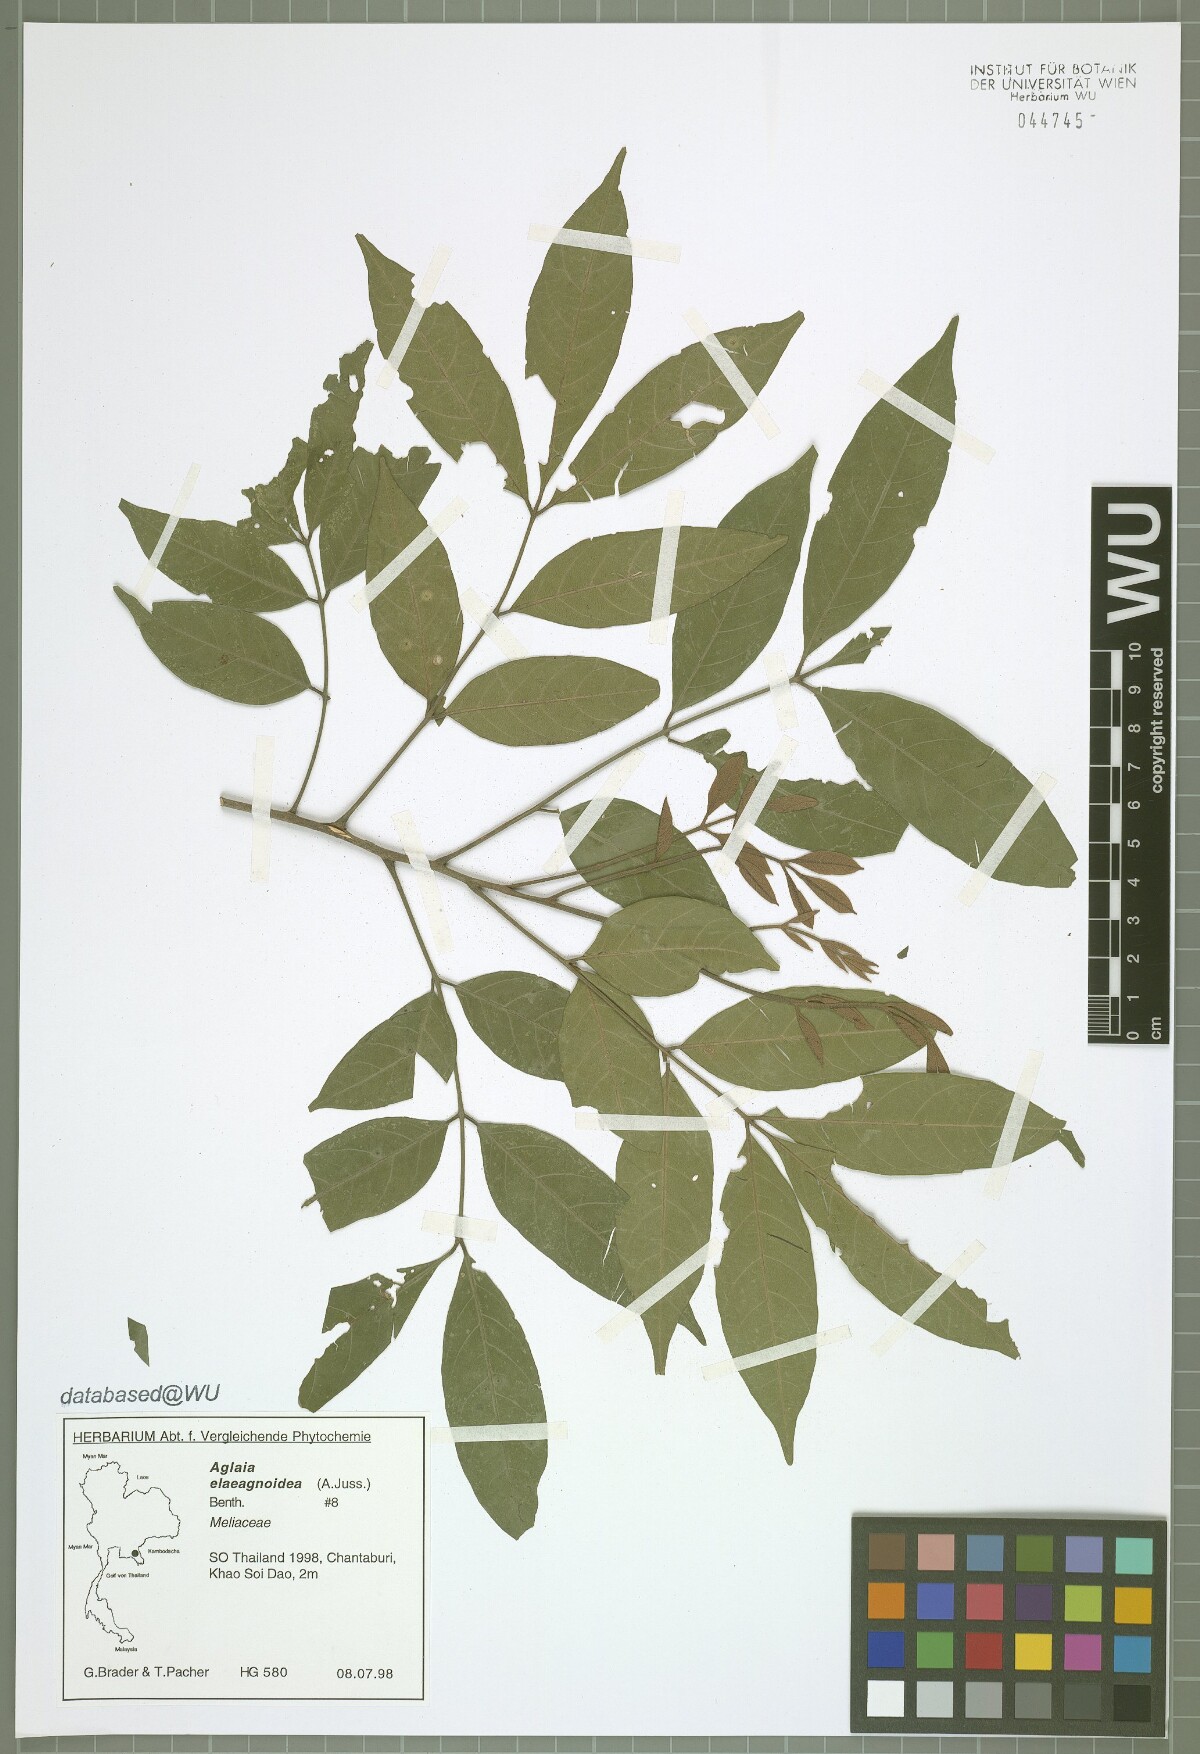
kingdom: Plantae
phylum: Tracheophyta
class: Magnoliopsida
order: Sapindales
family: Meliaceae
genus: Aglaia
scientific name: Aglaia elaeagnoidea
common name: Droopyleaf
